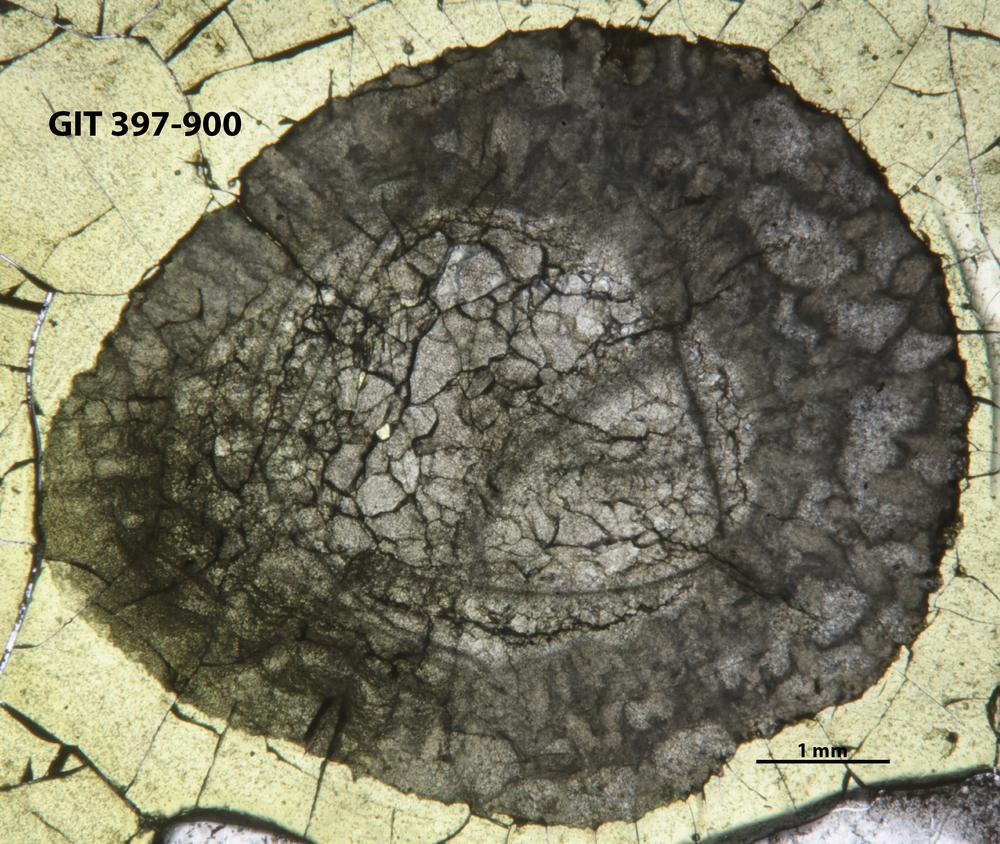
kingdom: Animalia
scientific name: Animalia
